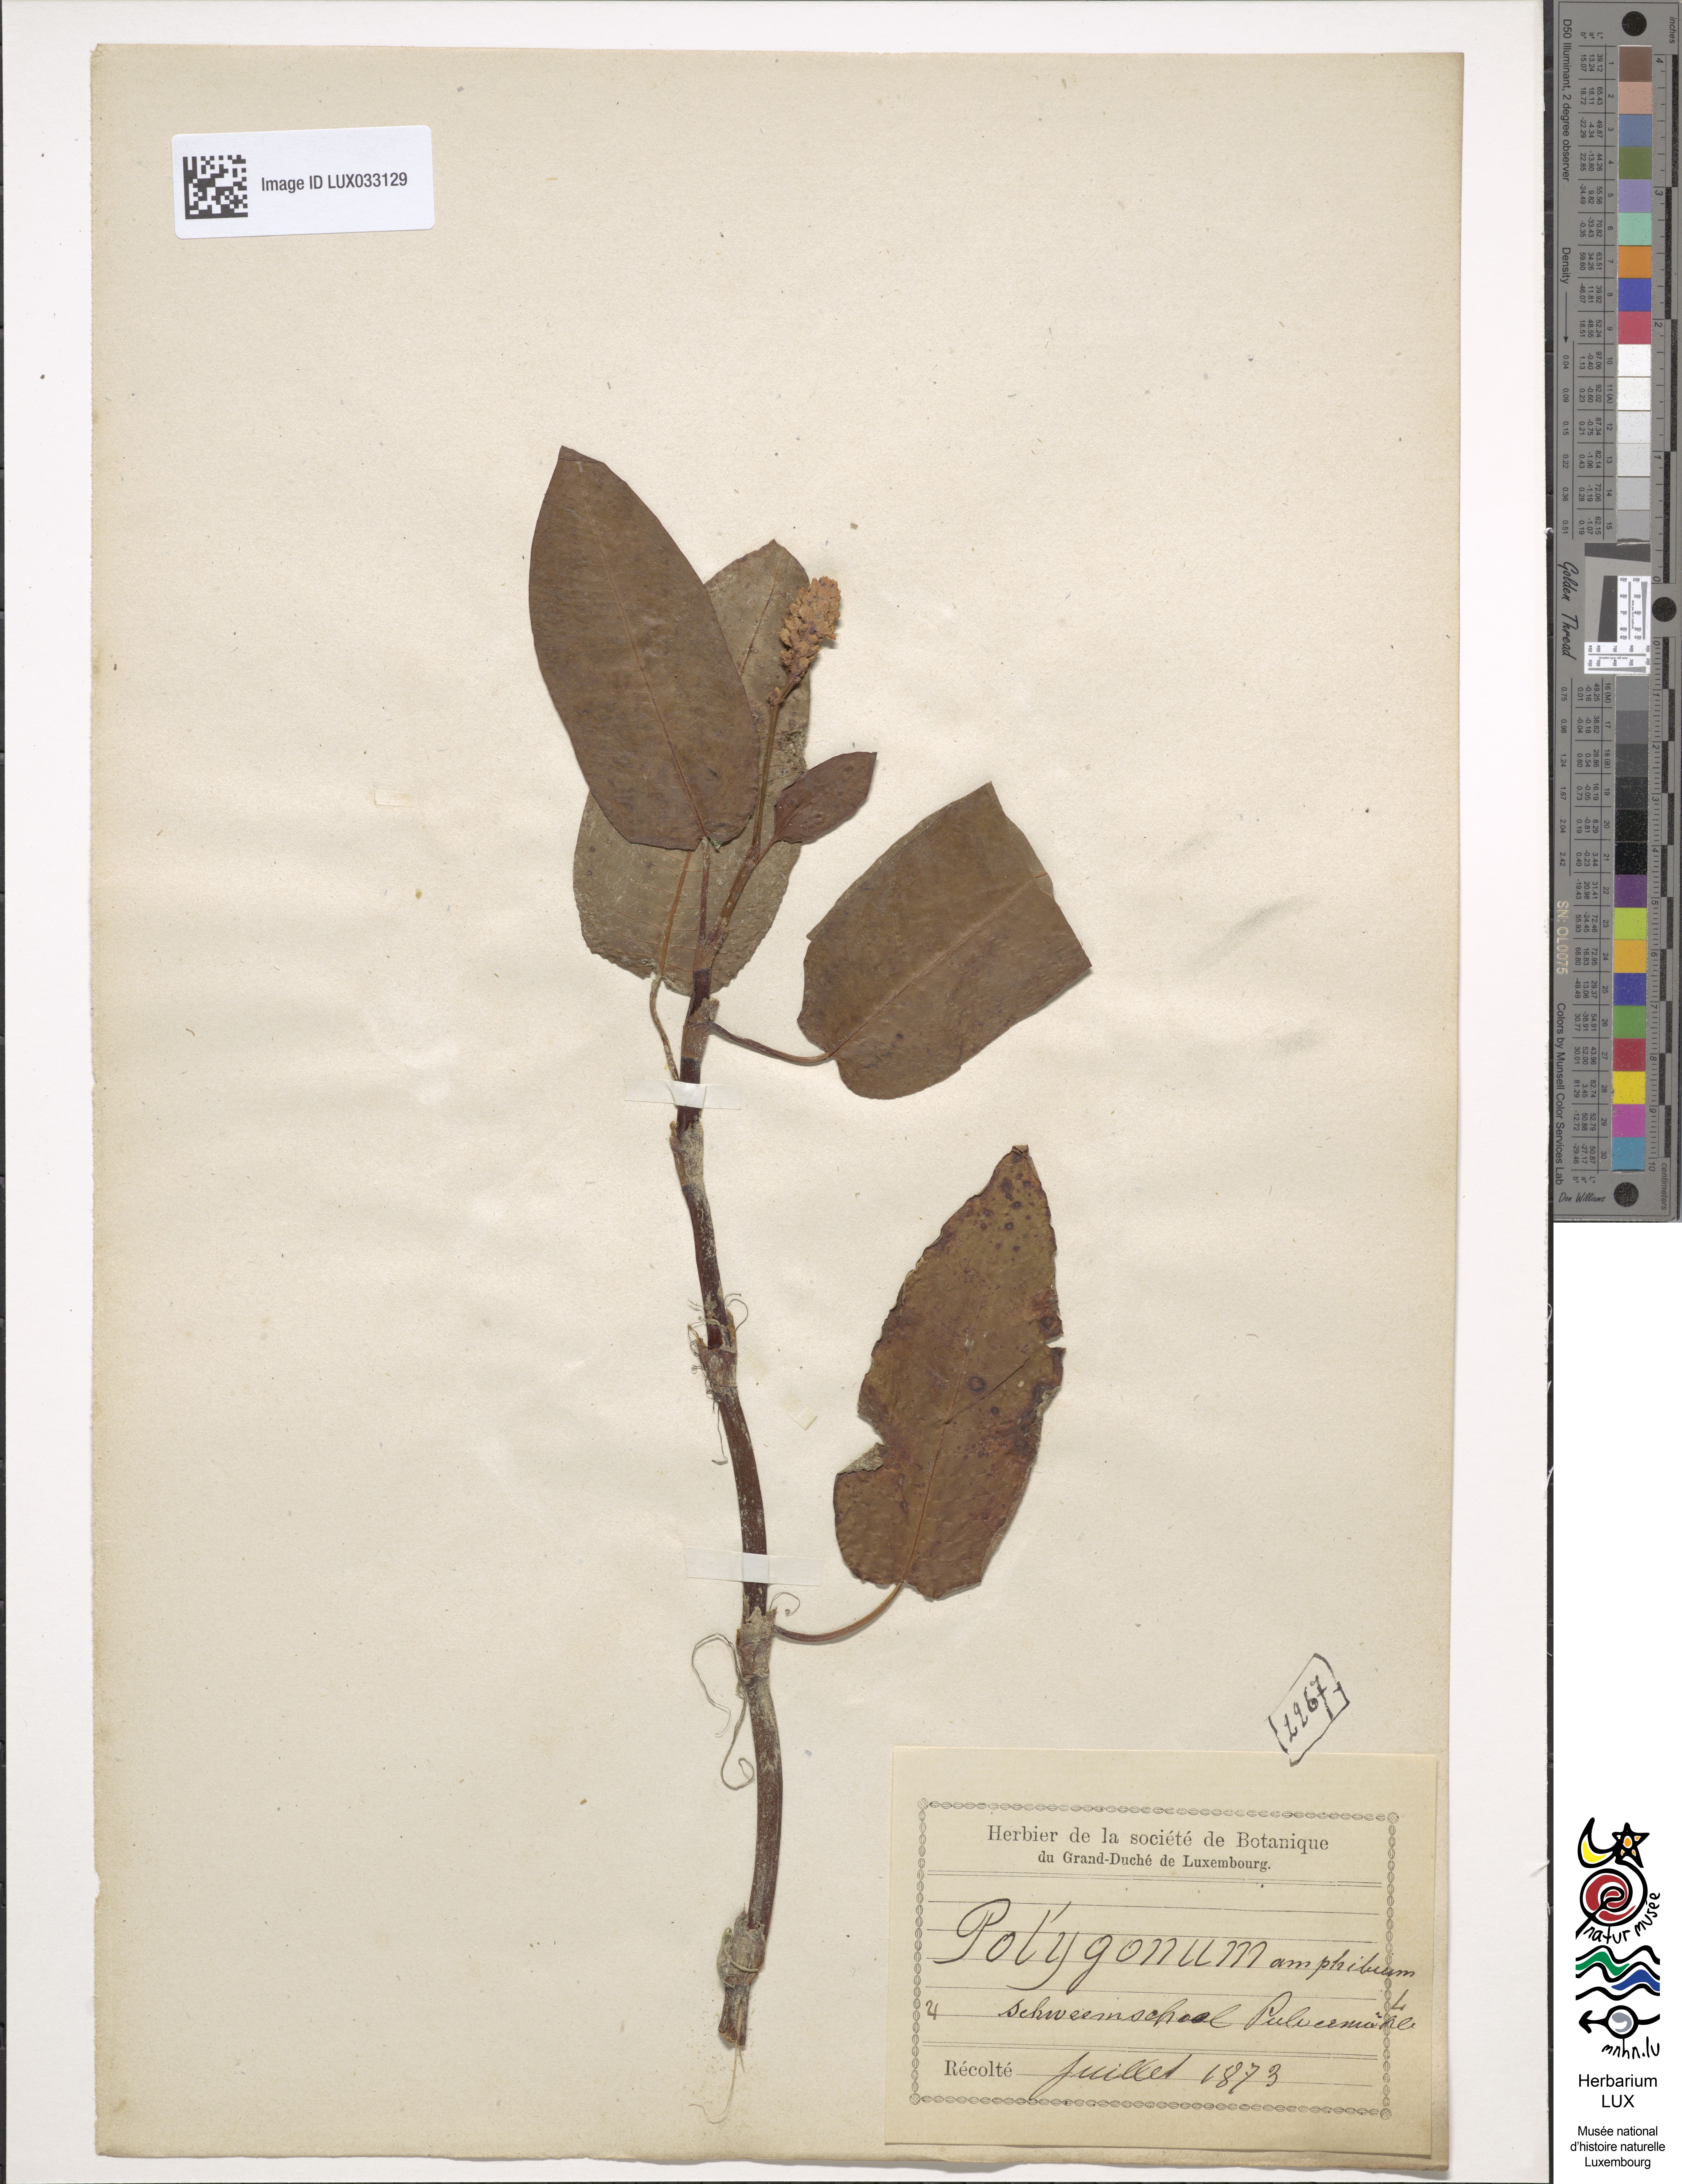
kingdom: Plantae
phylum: Tracheophyta
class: Magnoliopsida
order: Caryophyllales
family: Polygonaceae
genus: Persicaria
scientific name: Persicaria amphibia
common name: Amphibious bistort
